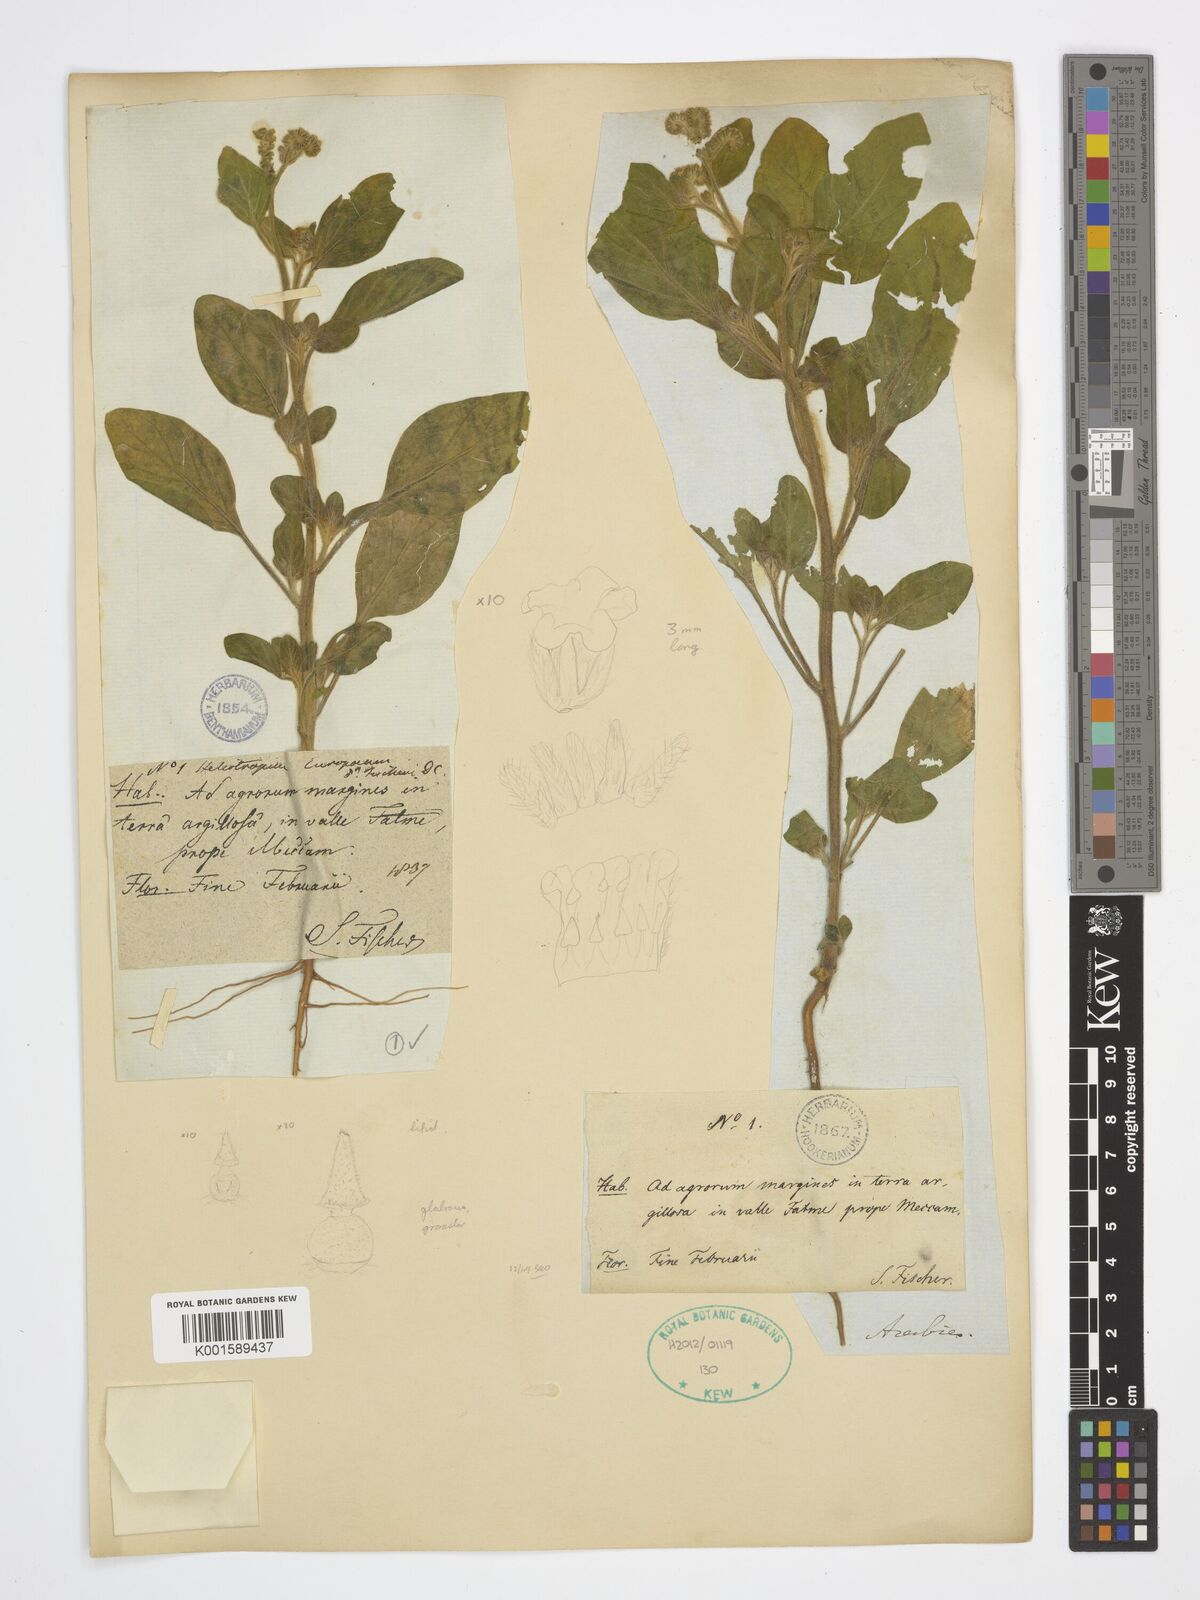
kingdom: Plantae
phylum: Tracheophyta
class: Magnoliopsida
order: Boraginales
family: Heliotropiaceae
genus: Heliotropium
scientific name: Heliotropium europaeum
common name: European heliotrope
